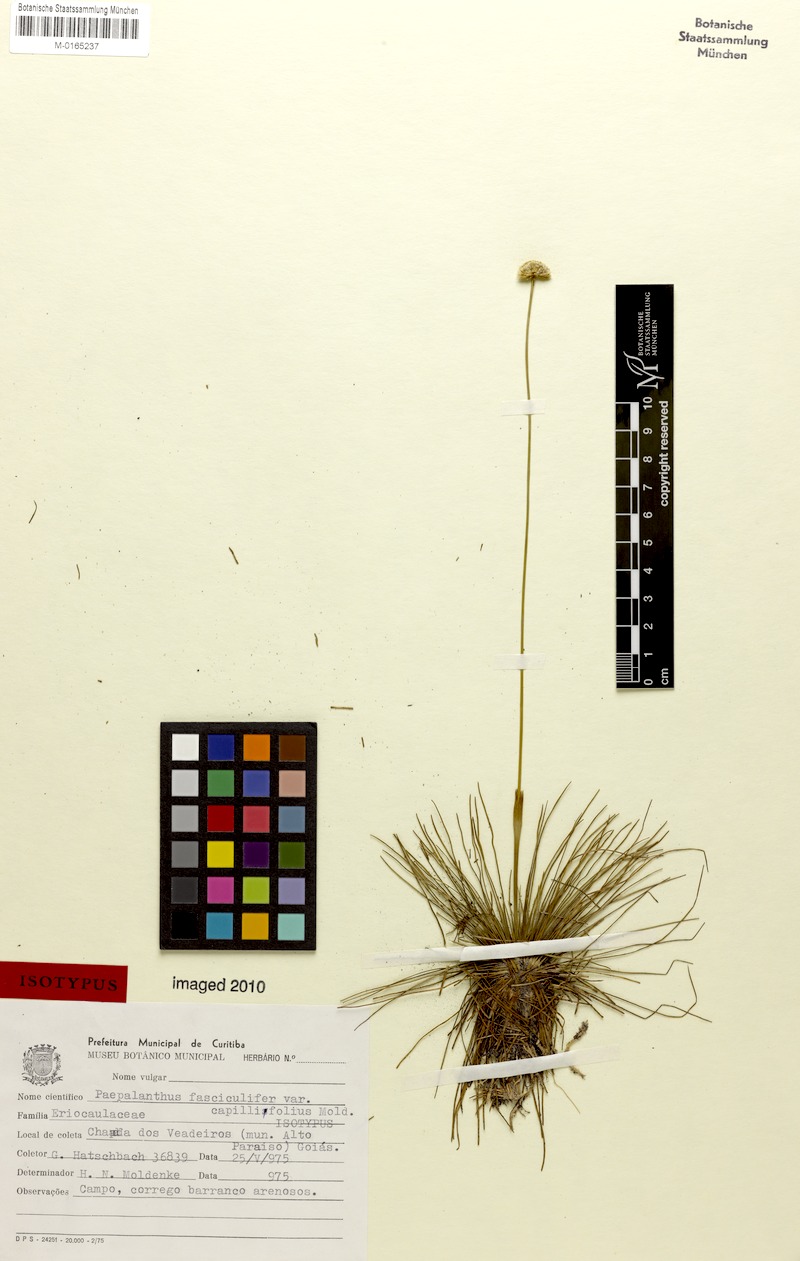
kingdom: Plantae
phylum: Tracheophyta
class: Liliopsida
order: Poales
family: Eriocaulaceae
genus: Paepalanthus
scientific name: Paepalanthus fasciculifer
